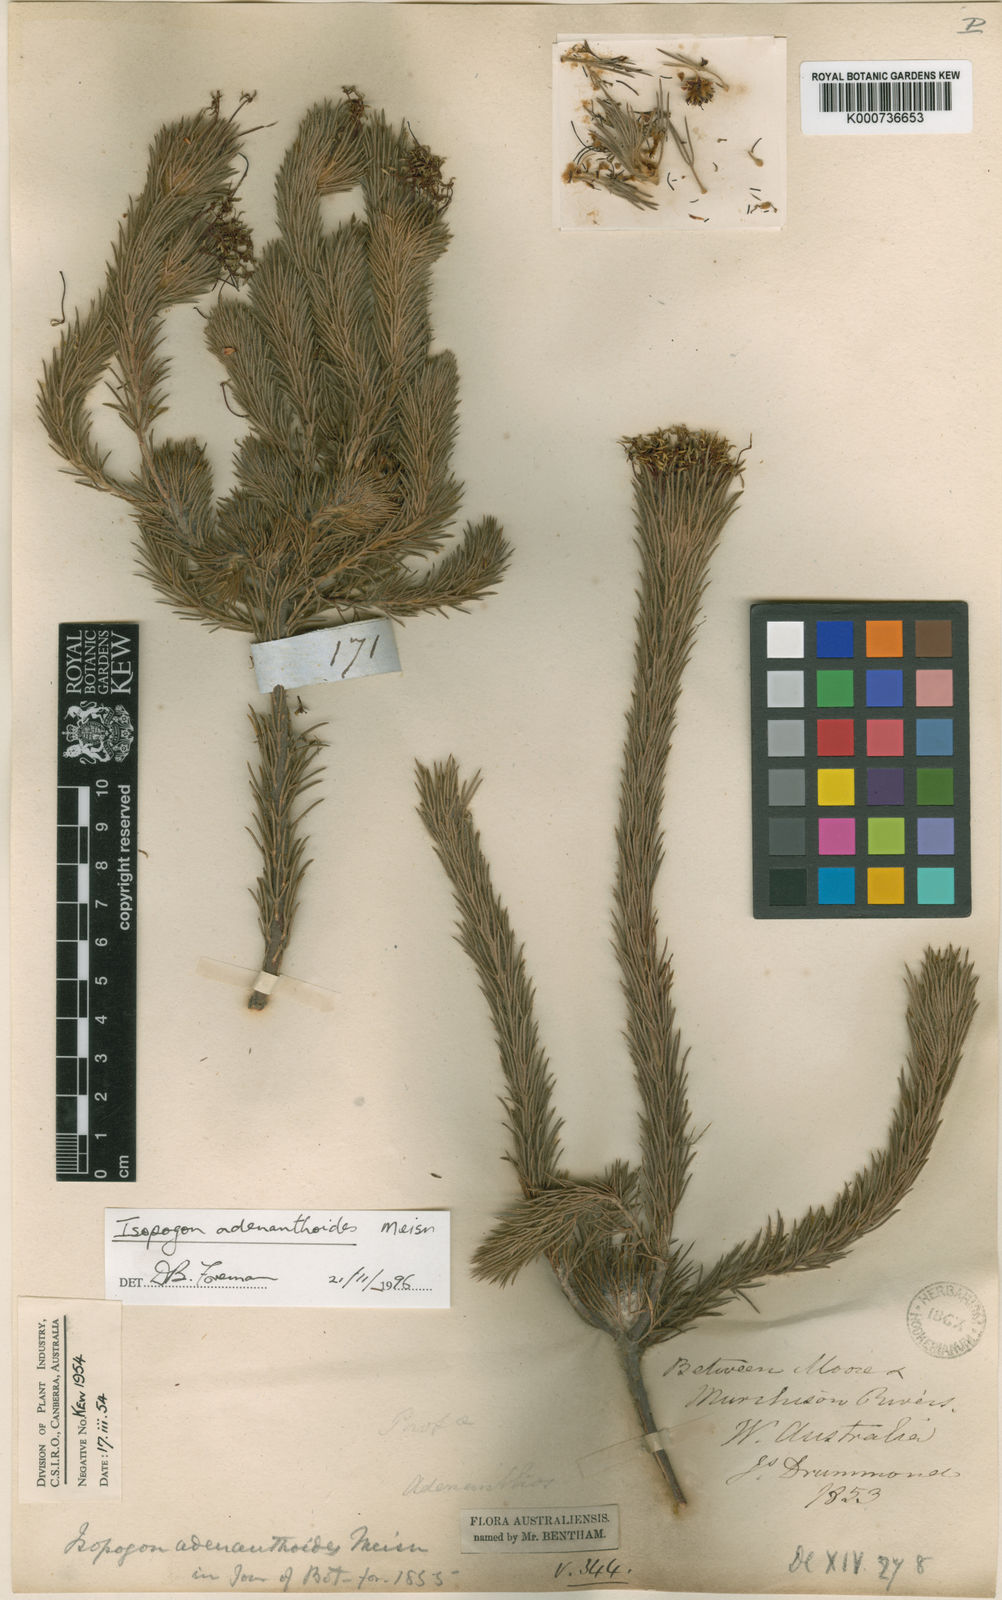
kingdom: Plantae
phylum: Tracheophyta
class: Magnoliopsida
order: Proteales
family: Proteaceae
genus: Isopogon
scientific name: Isopogon adenanthoides
